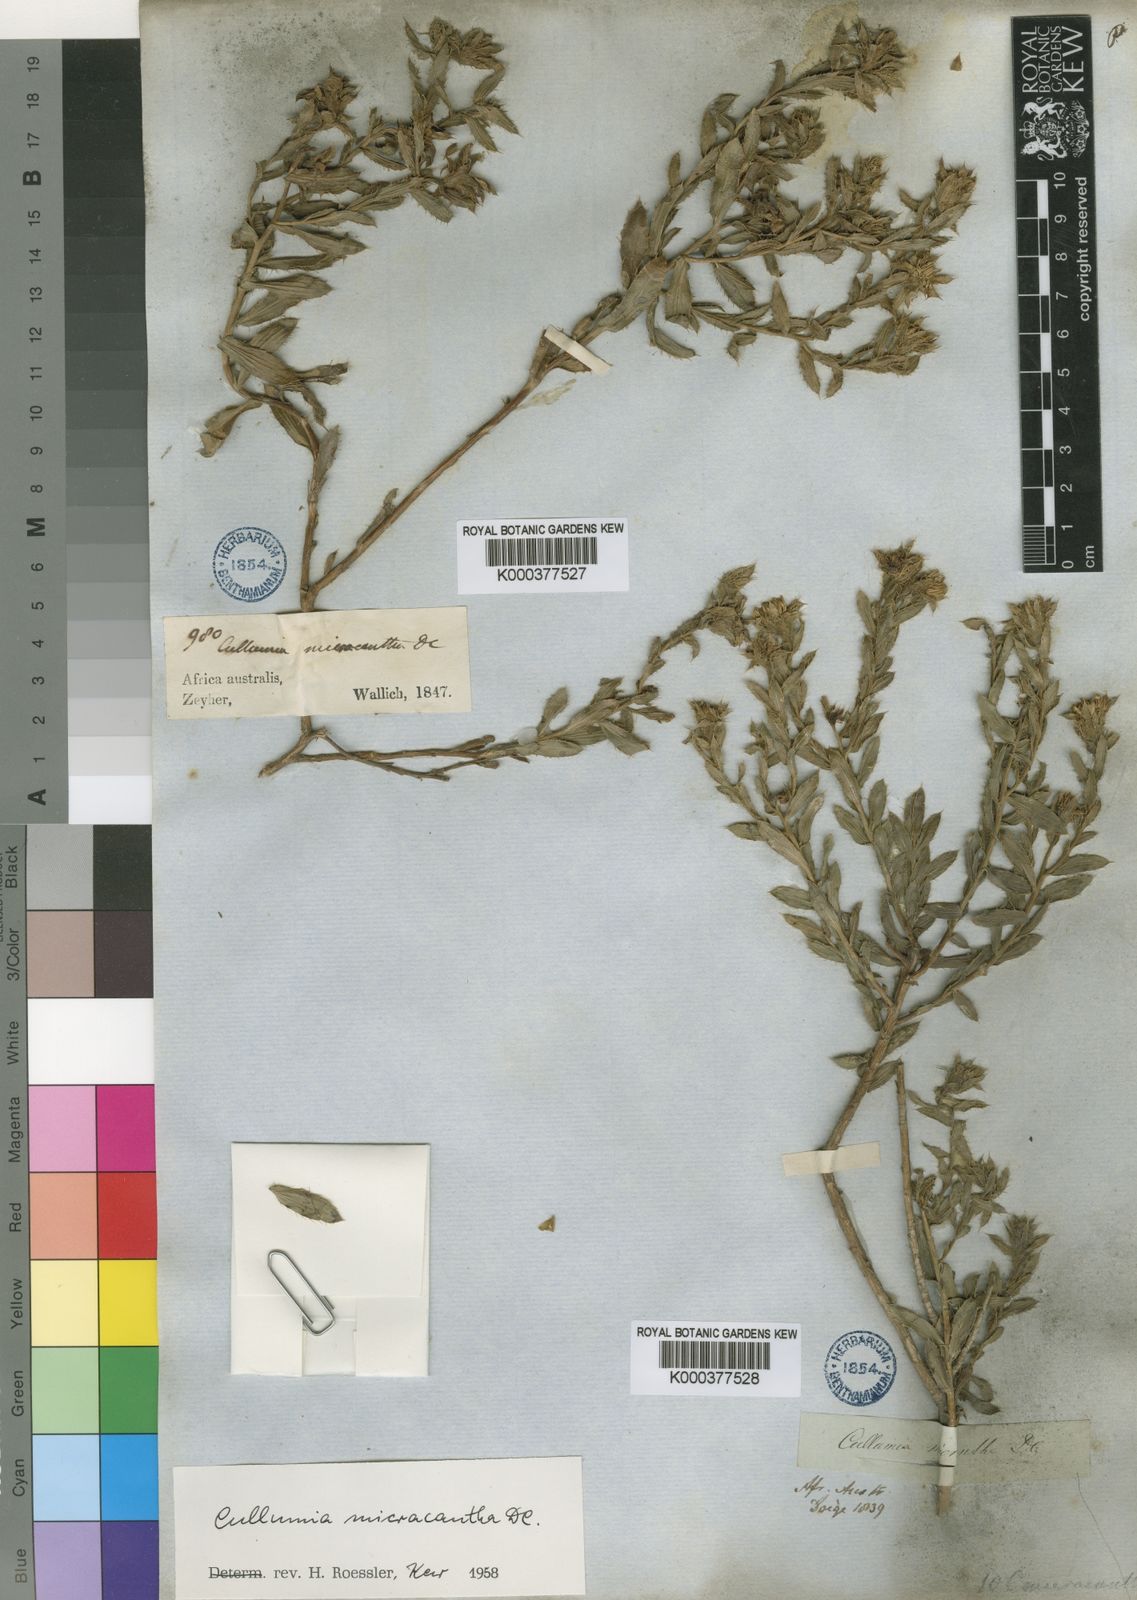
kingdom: Plantae
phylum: Tracheophyta
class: Magnoliopsida
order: Asterales
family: Asteraceae
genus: Cullumia
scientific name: Cullumia micracantha
